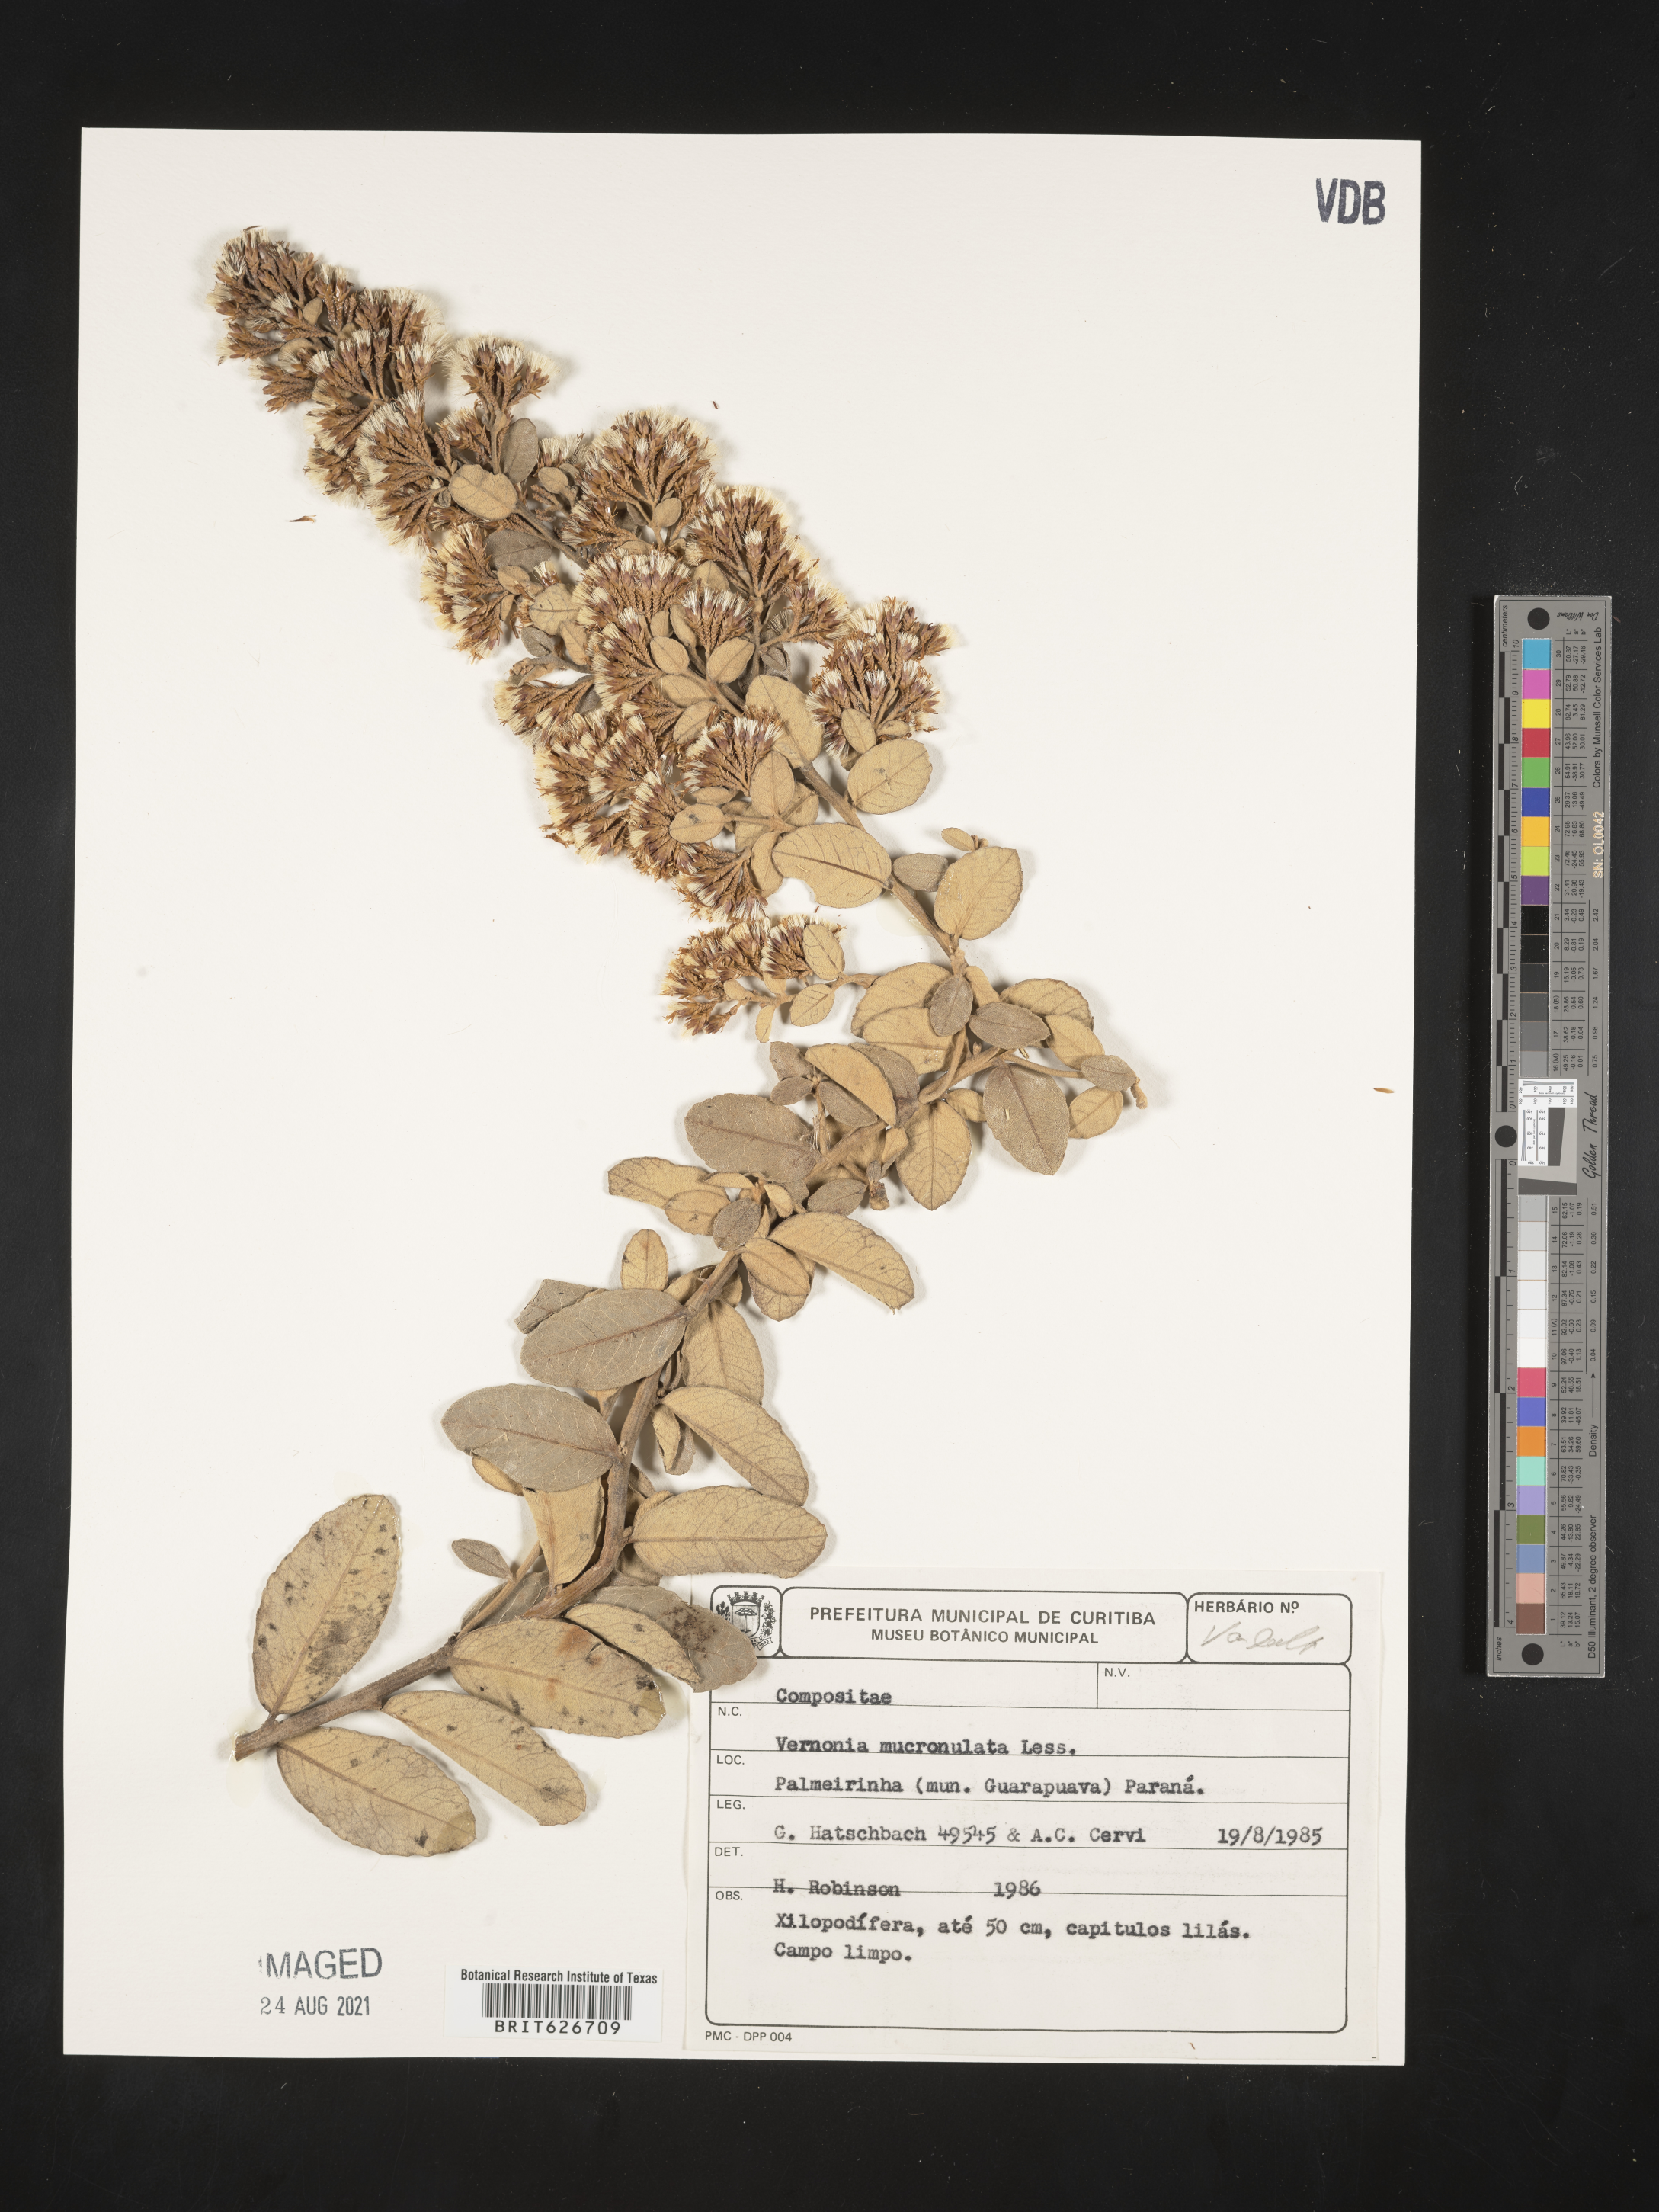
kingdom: Plantae
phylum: Tracheophyta
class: Magnoliopsida
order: Asterales
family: Asteraceae
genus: Vernonanthura
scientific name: Vernonanthura mucronulata
